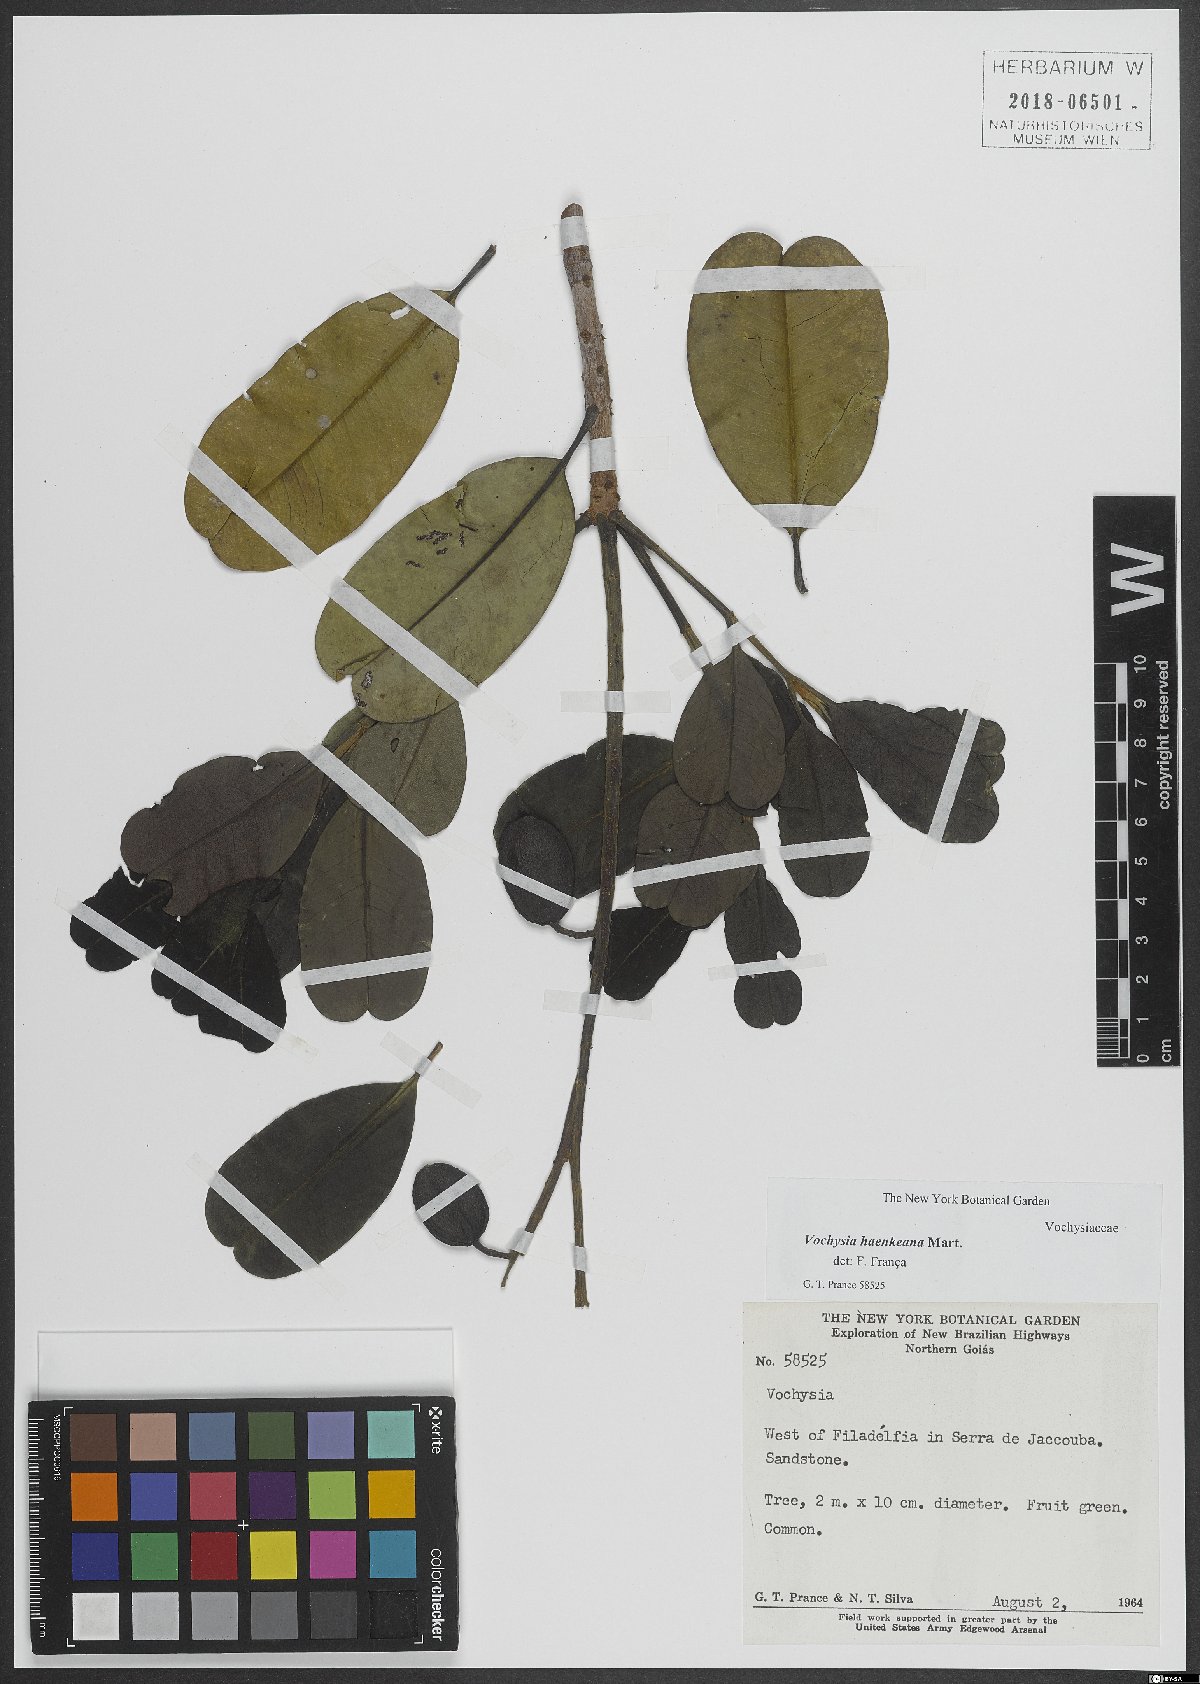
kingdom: Plantae
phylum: Tracheophyta
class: Magnoliopsida
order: Myrtales
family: Vochysiaceae
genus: Vochysia
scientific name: Vochysia haenkeana
